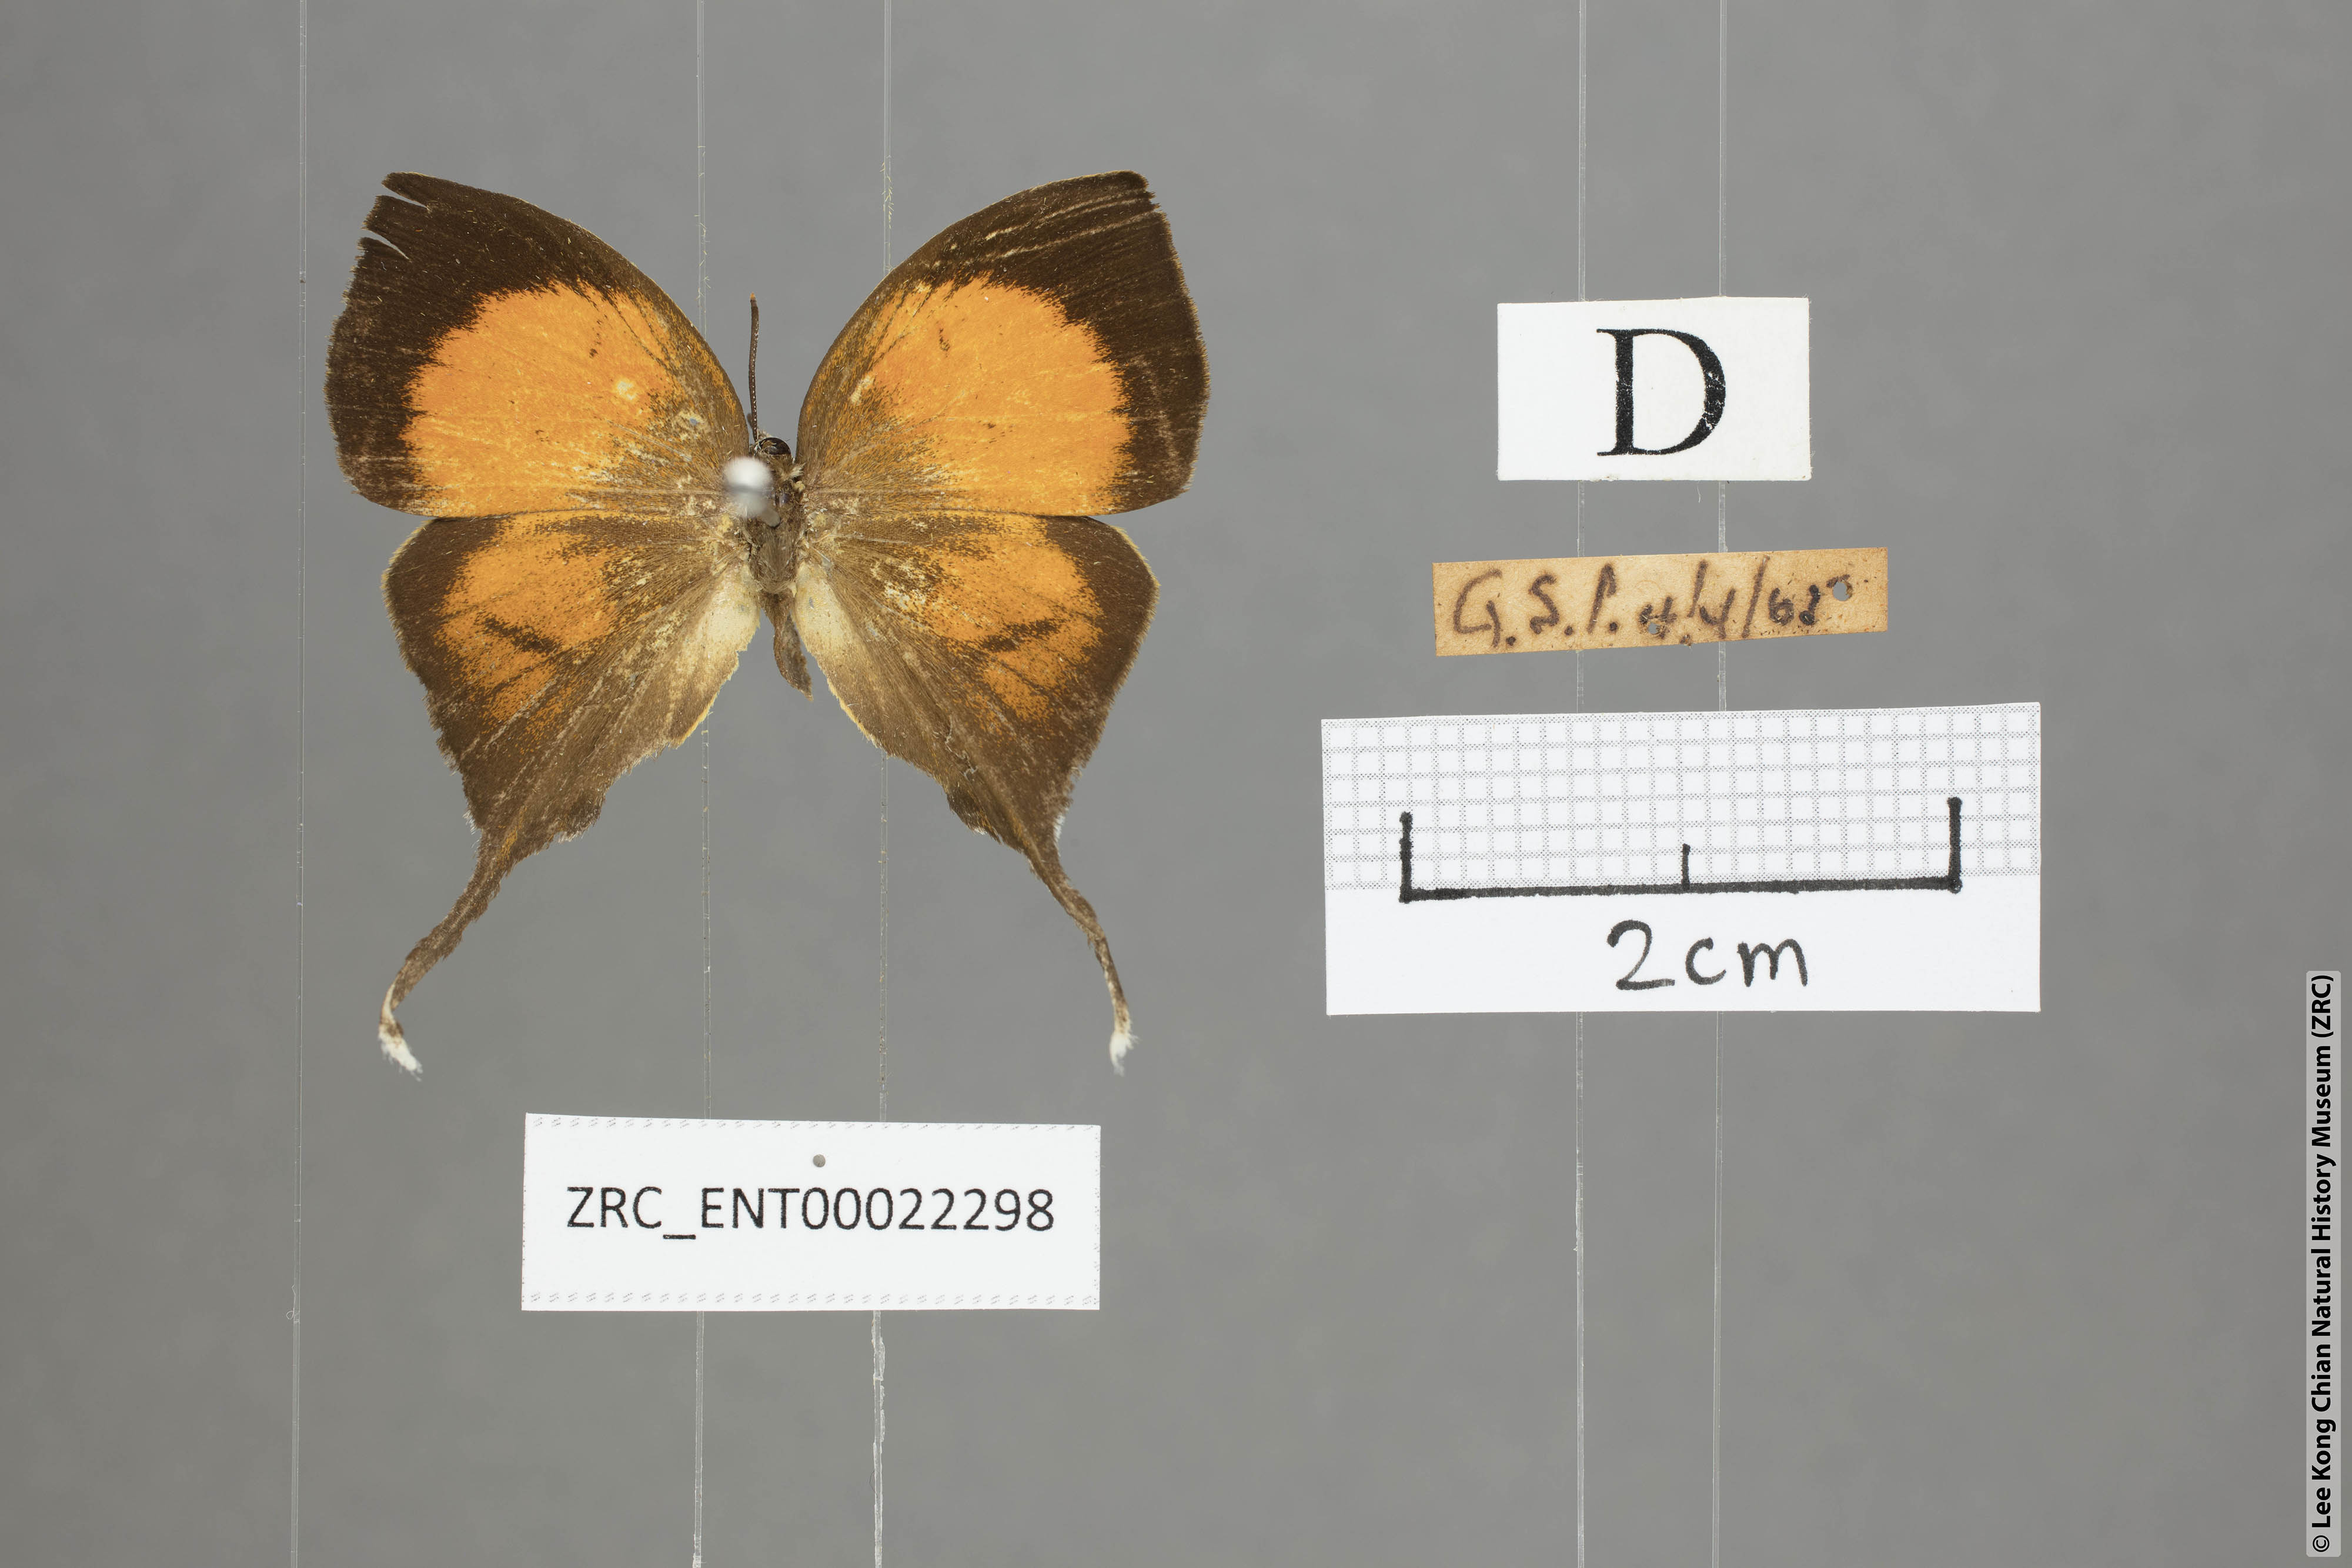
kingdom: Animalia
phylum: Arthropoda
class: Insecta
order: Lepidoptera
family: Lycaenidae
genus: Yasoda
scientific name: Yasoda pita
